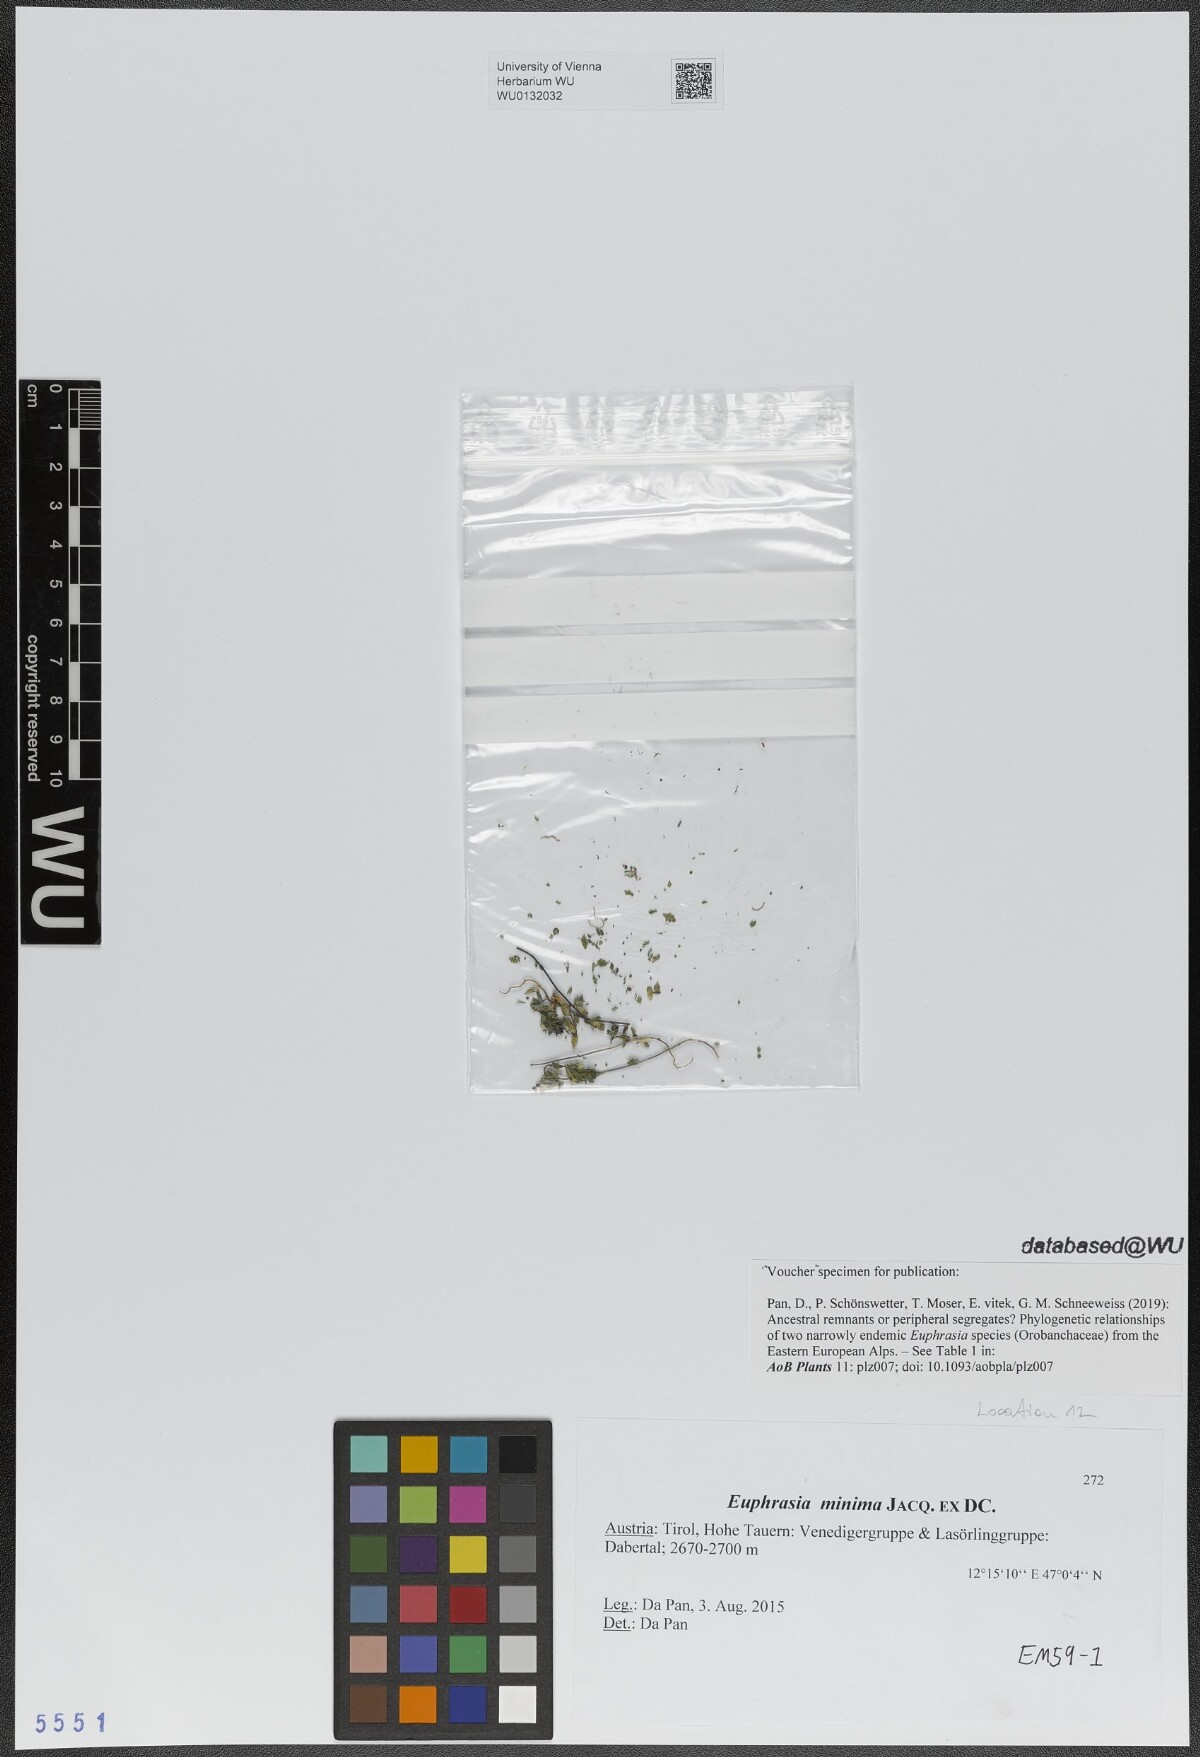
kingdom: Plantae
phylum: Tracheophyta
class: Magnoliopsida
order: Lamiales
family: Orobanchaceae
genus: Euphrasia
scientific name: Euphrasia minima
